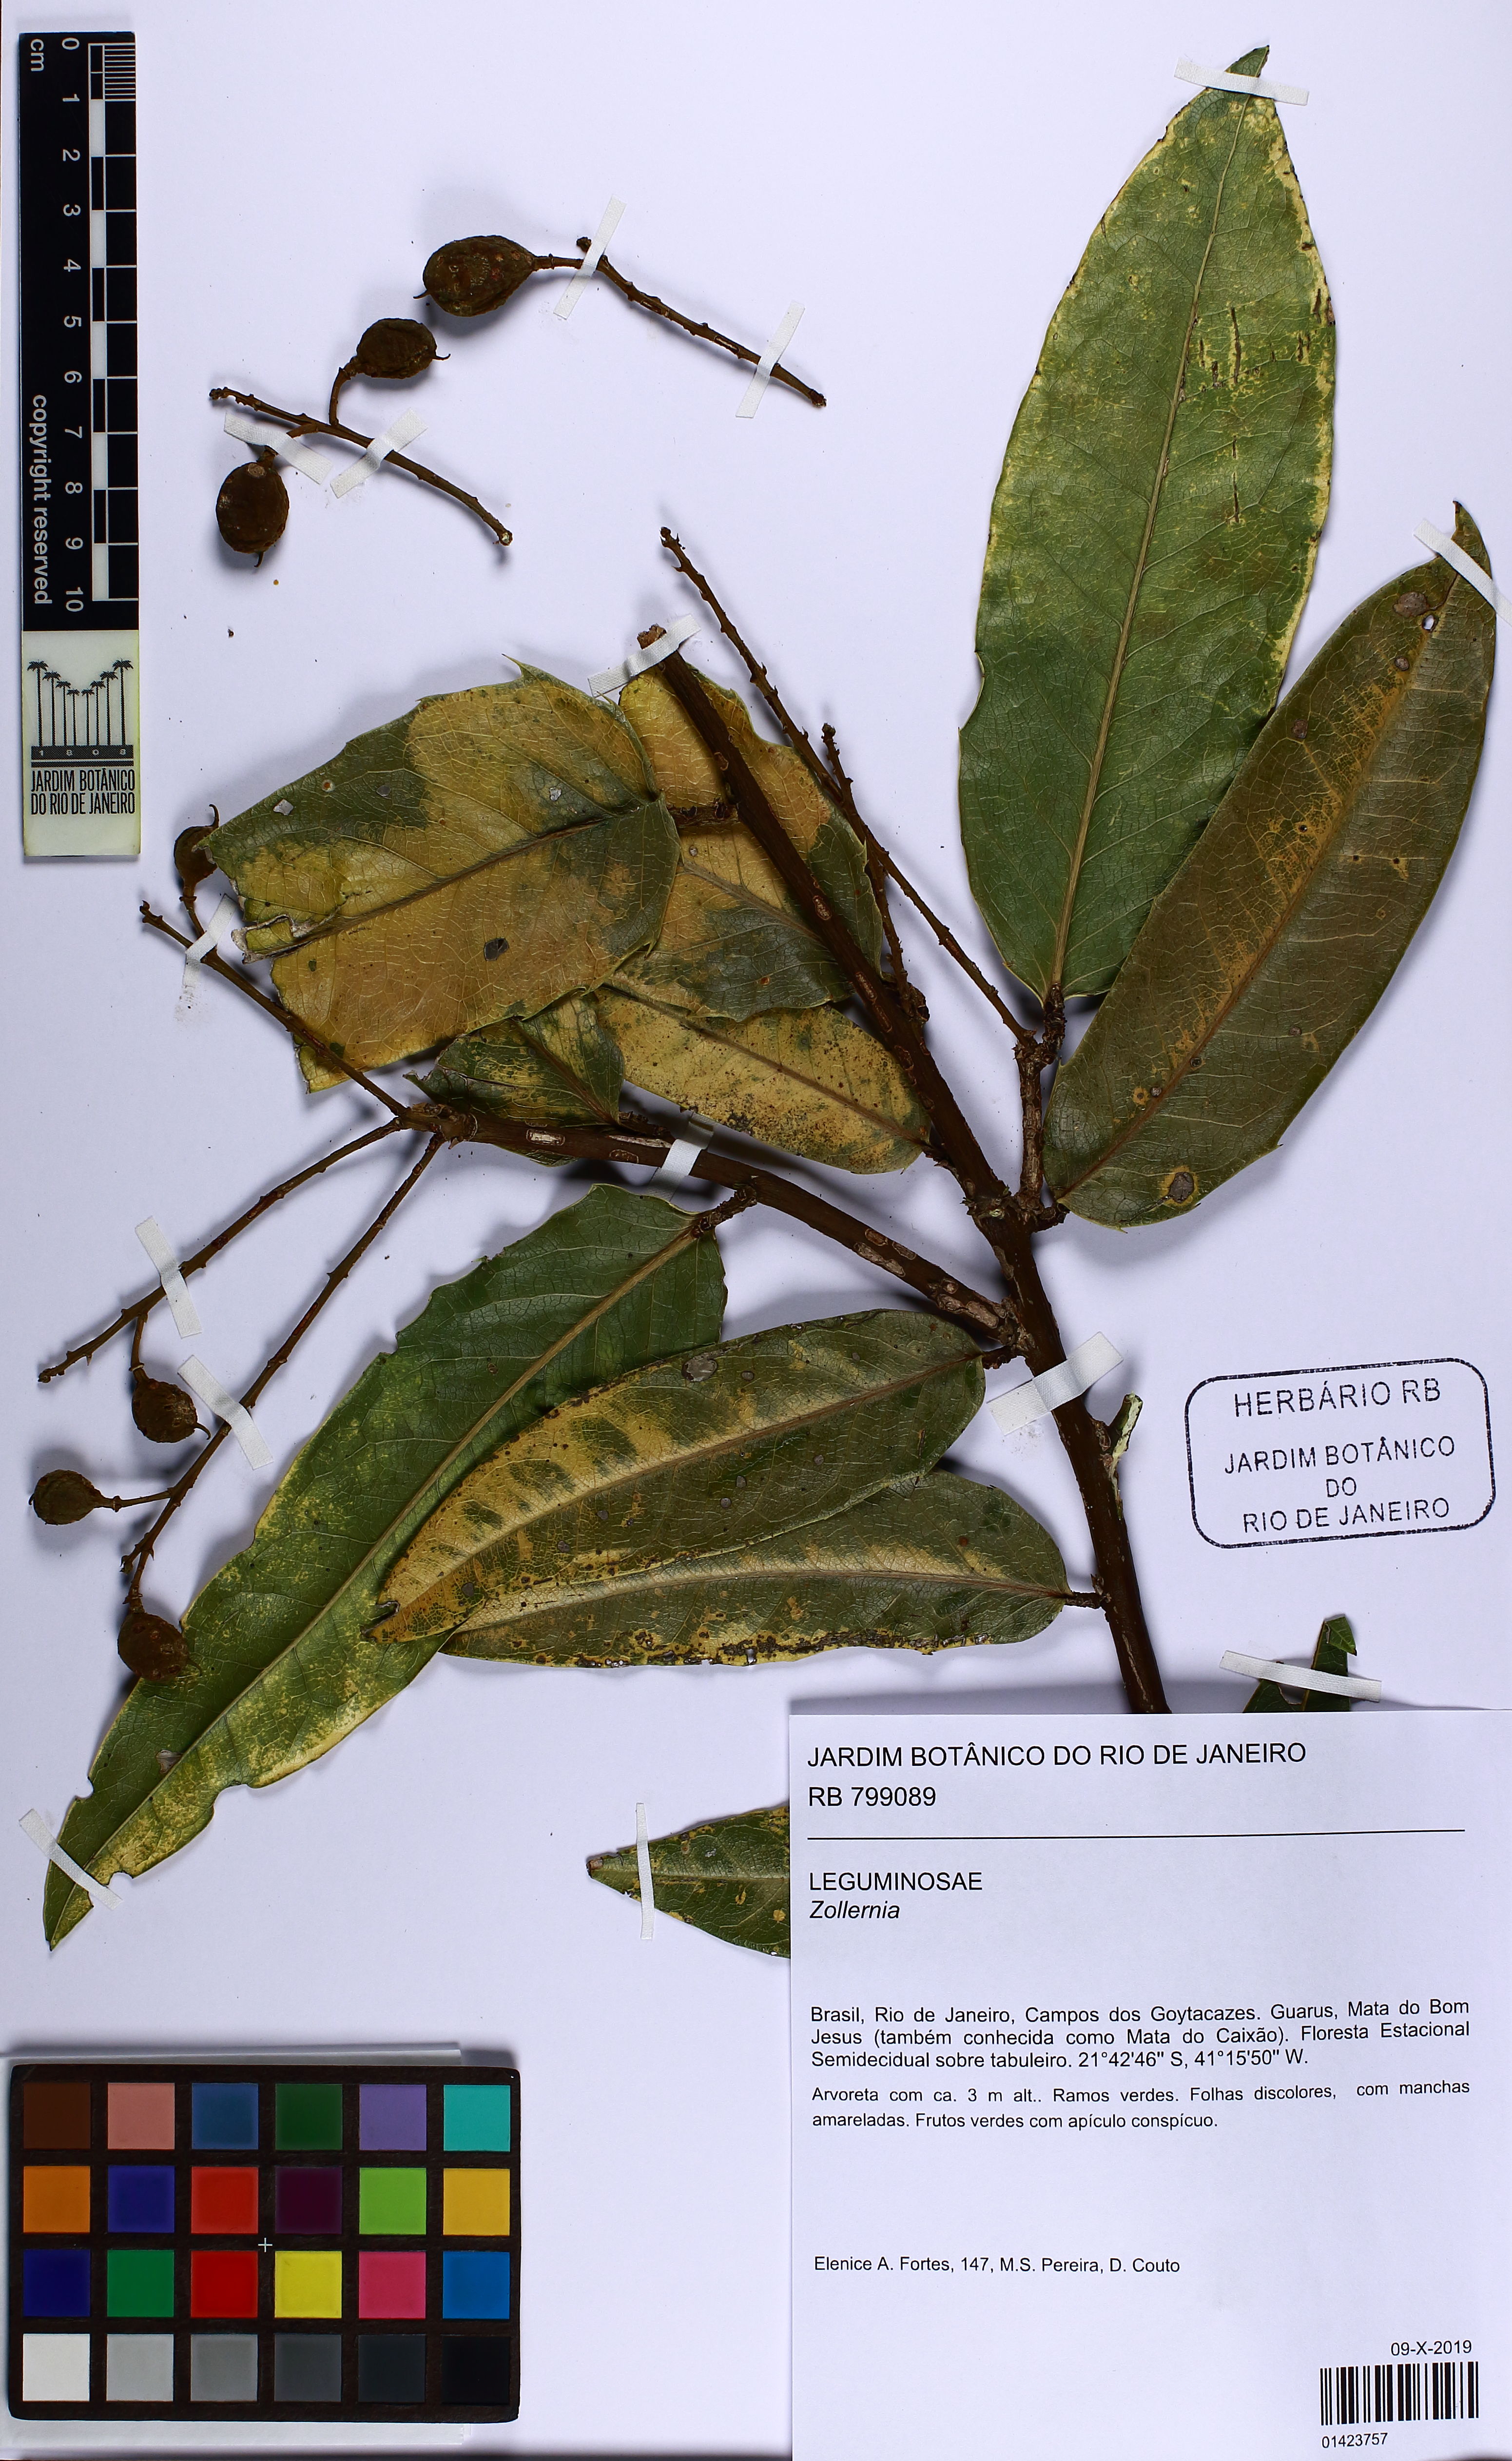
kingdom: Plantae
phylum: Tracheophyta
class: Magnoliopsida
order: Fabales
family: Fabaceae
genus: Zollernia
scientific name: Zollernia
